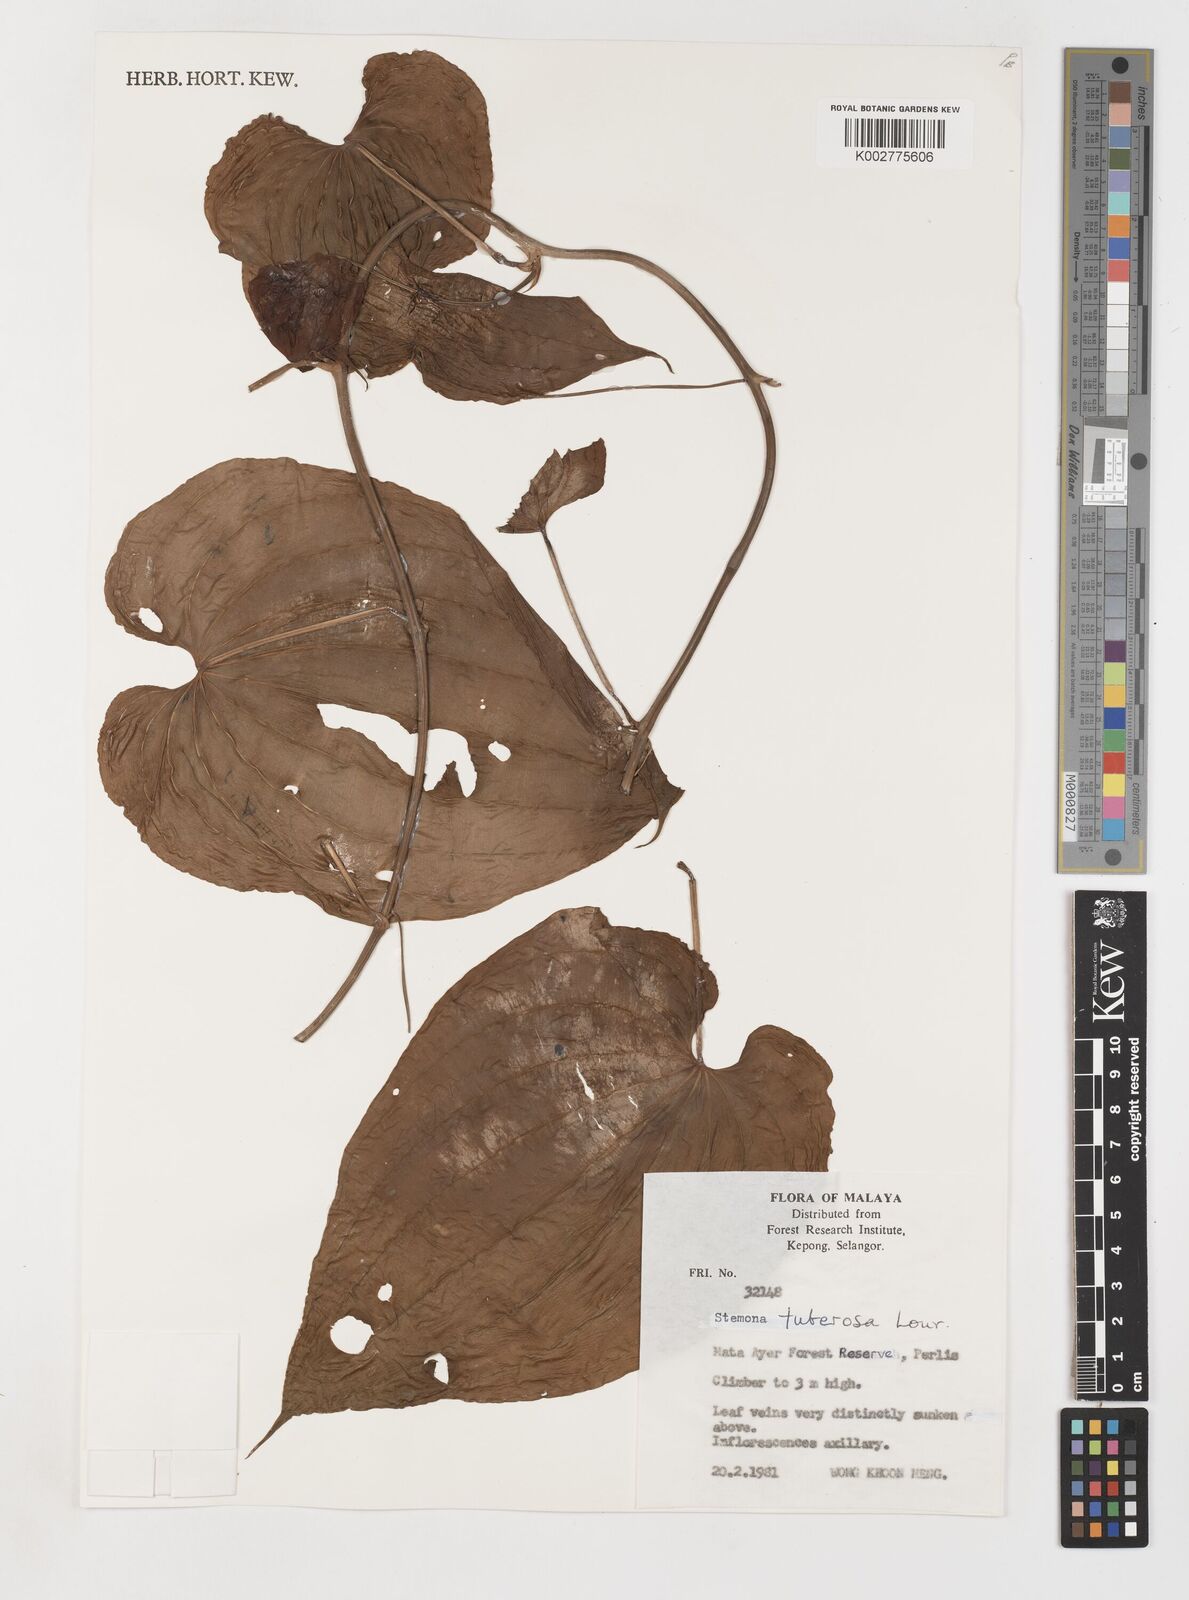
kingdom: Plantae
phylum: Tracheophyta
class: Liliopsida
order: Pandanales
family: Stemonaceae
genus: Stemona
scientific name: Stemona tuberosa
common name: Stemona
